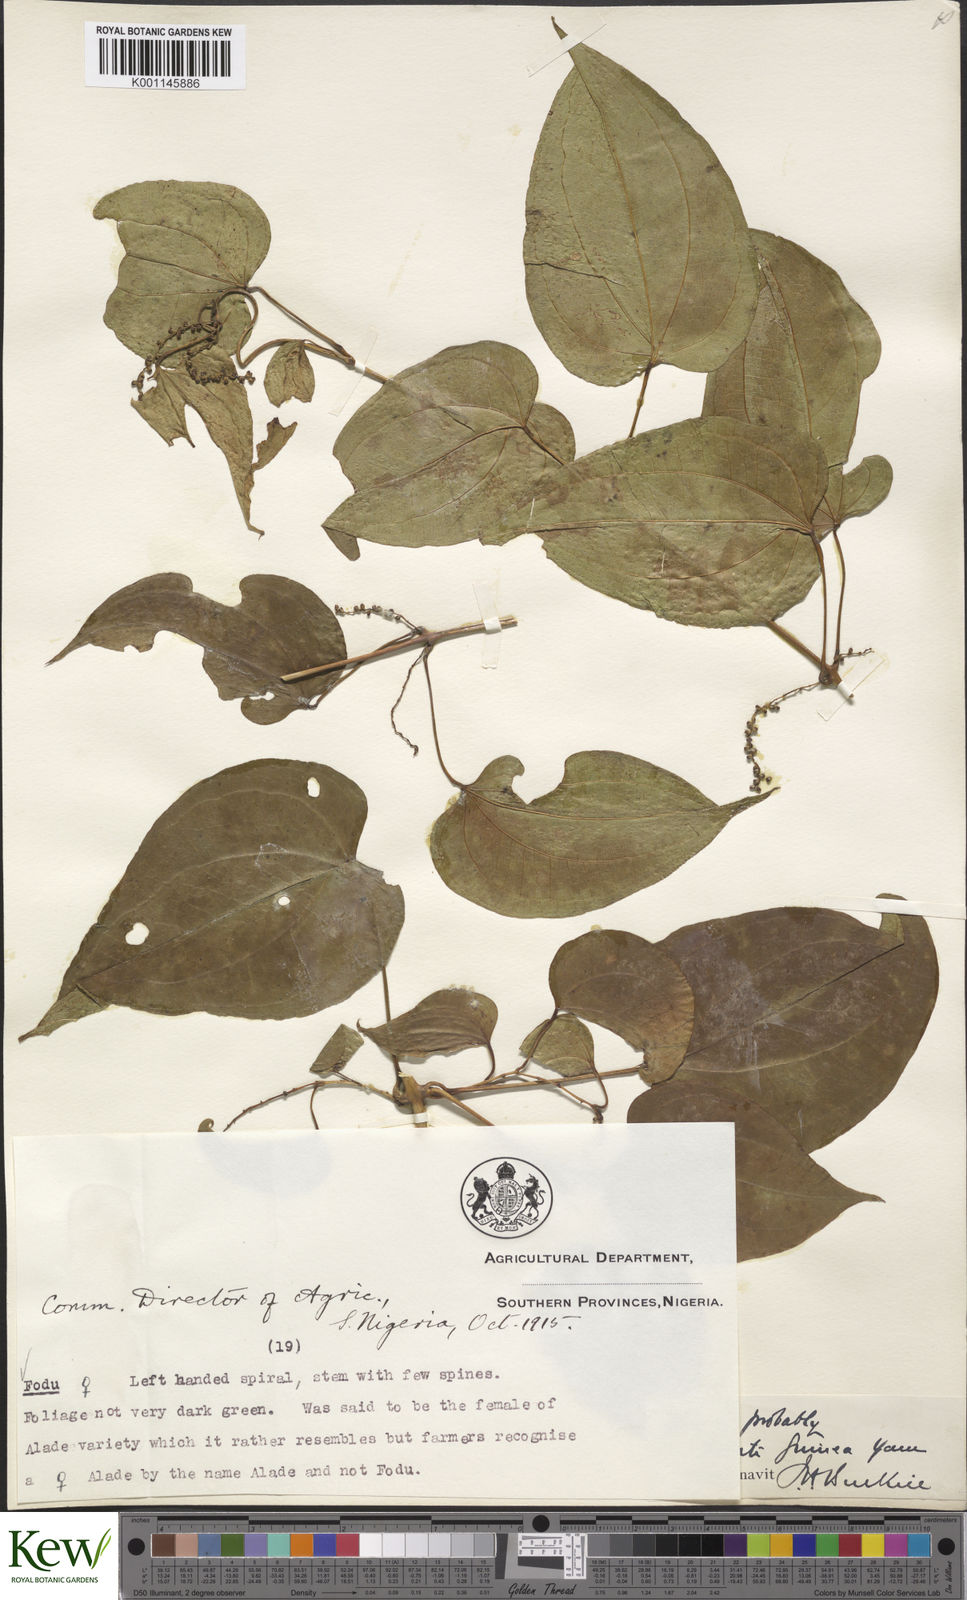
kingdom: Plantae
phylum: Tracheophyta
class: Liliopsida
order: Dioscoreales
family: Dioscoreaceae
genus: Dioscorea
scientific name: Dioscorea cayenensis
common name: Attoto yam
